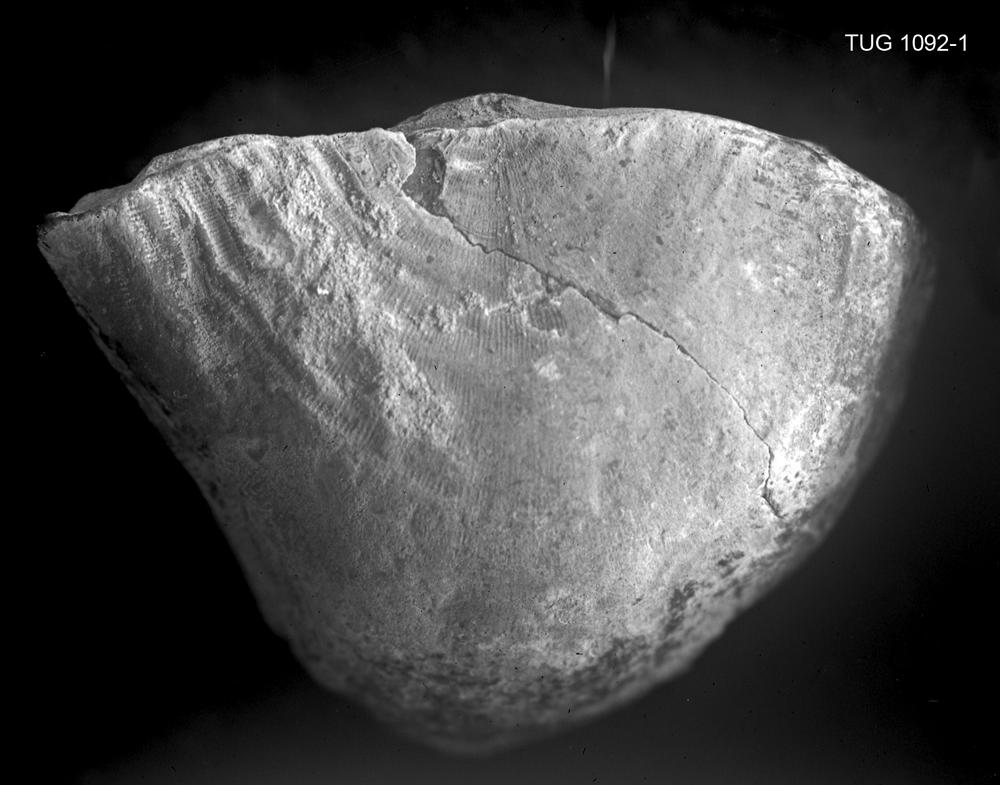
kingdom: Animalia
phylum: Brachiopoda
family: Leptellinidae
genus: Palaeostrophomena
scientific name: Palaeostrophomena Strophomena concava
